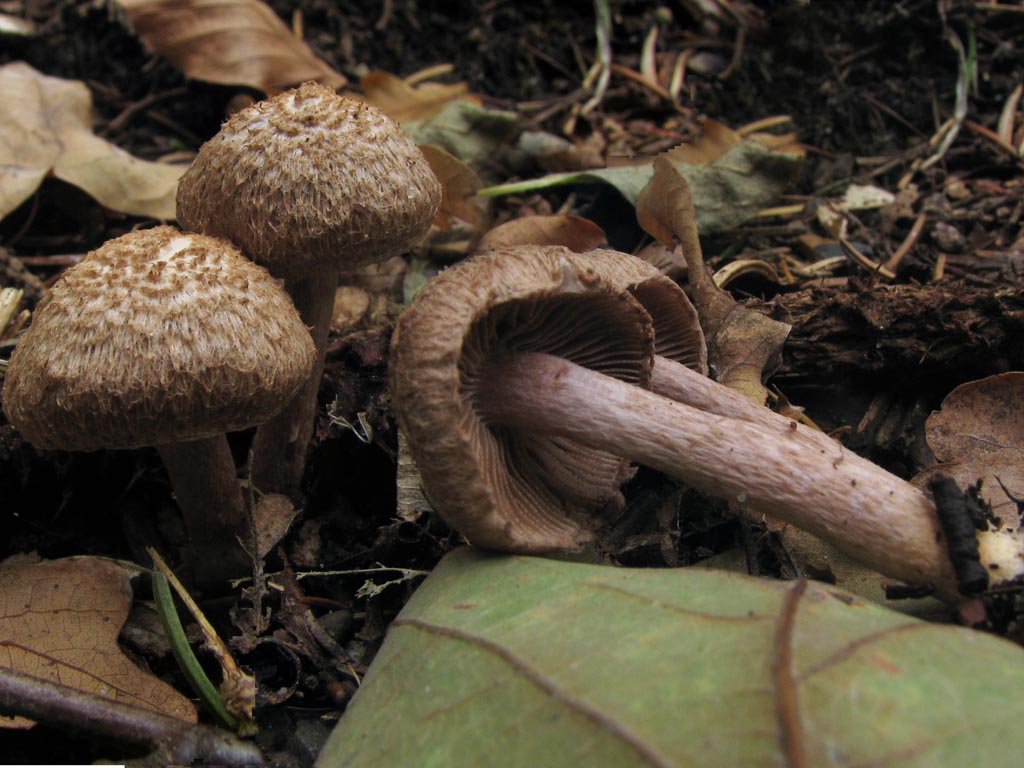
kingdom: Fungi
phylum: Basidiomycota
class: Agaricomycetes
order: Agaricales
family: Inocybaceae
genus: Inocybe
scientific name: Inocybe cincinnata
